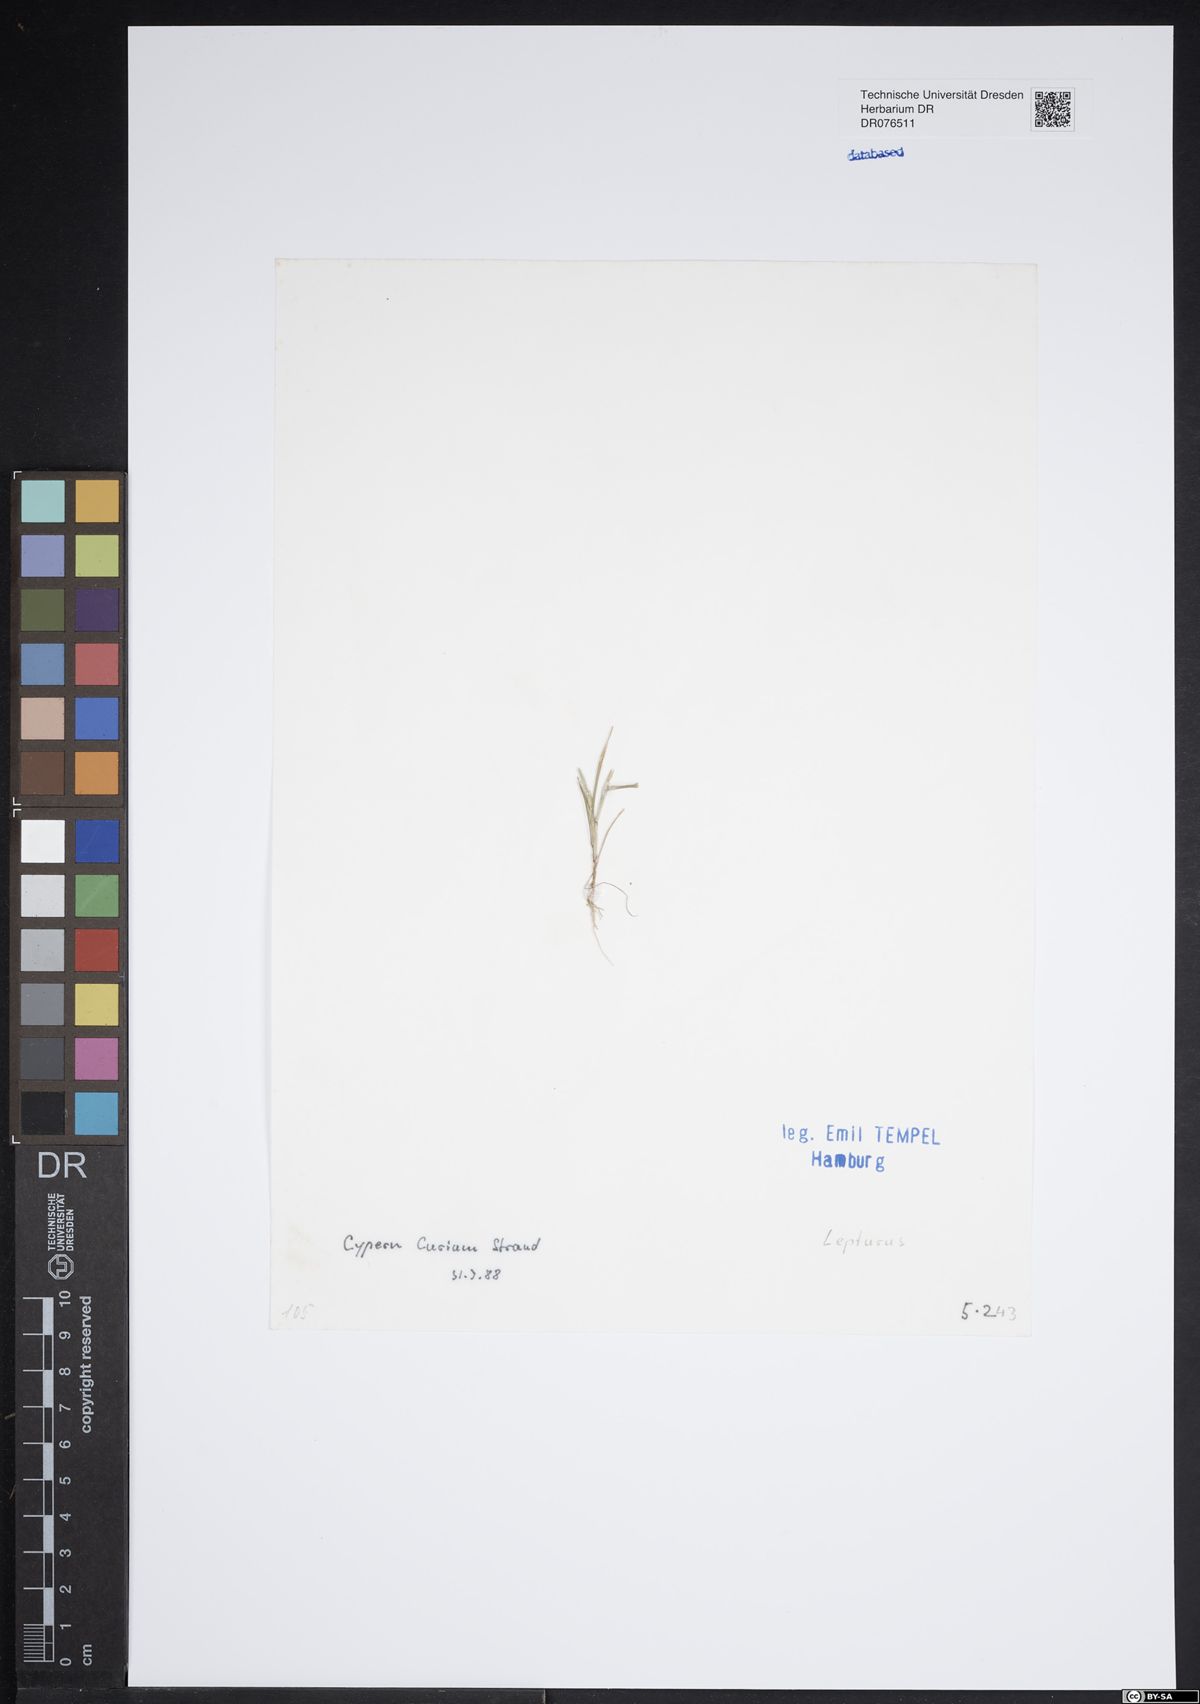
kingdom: Plantae
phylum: Tracheophyta
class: Liliopsida
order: Poales
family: Poaceae
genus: Lepturus
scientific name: Lepturus
